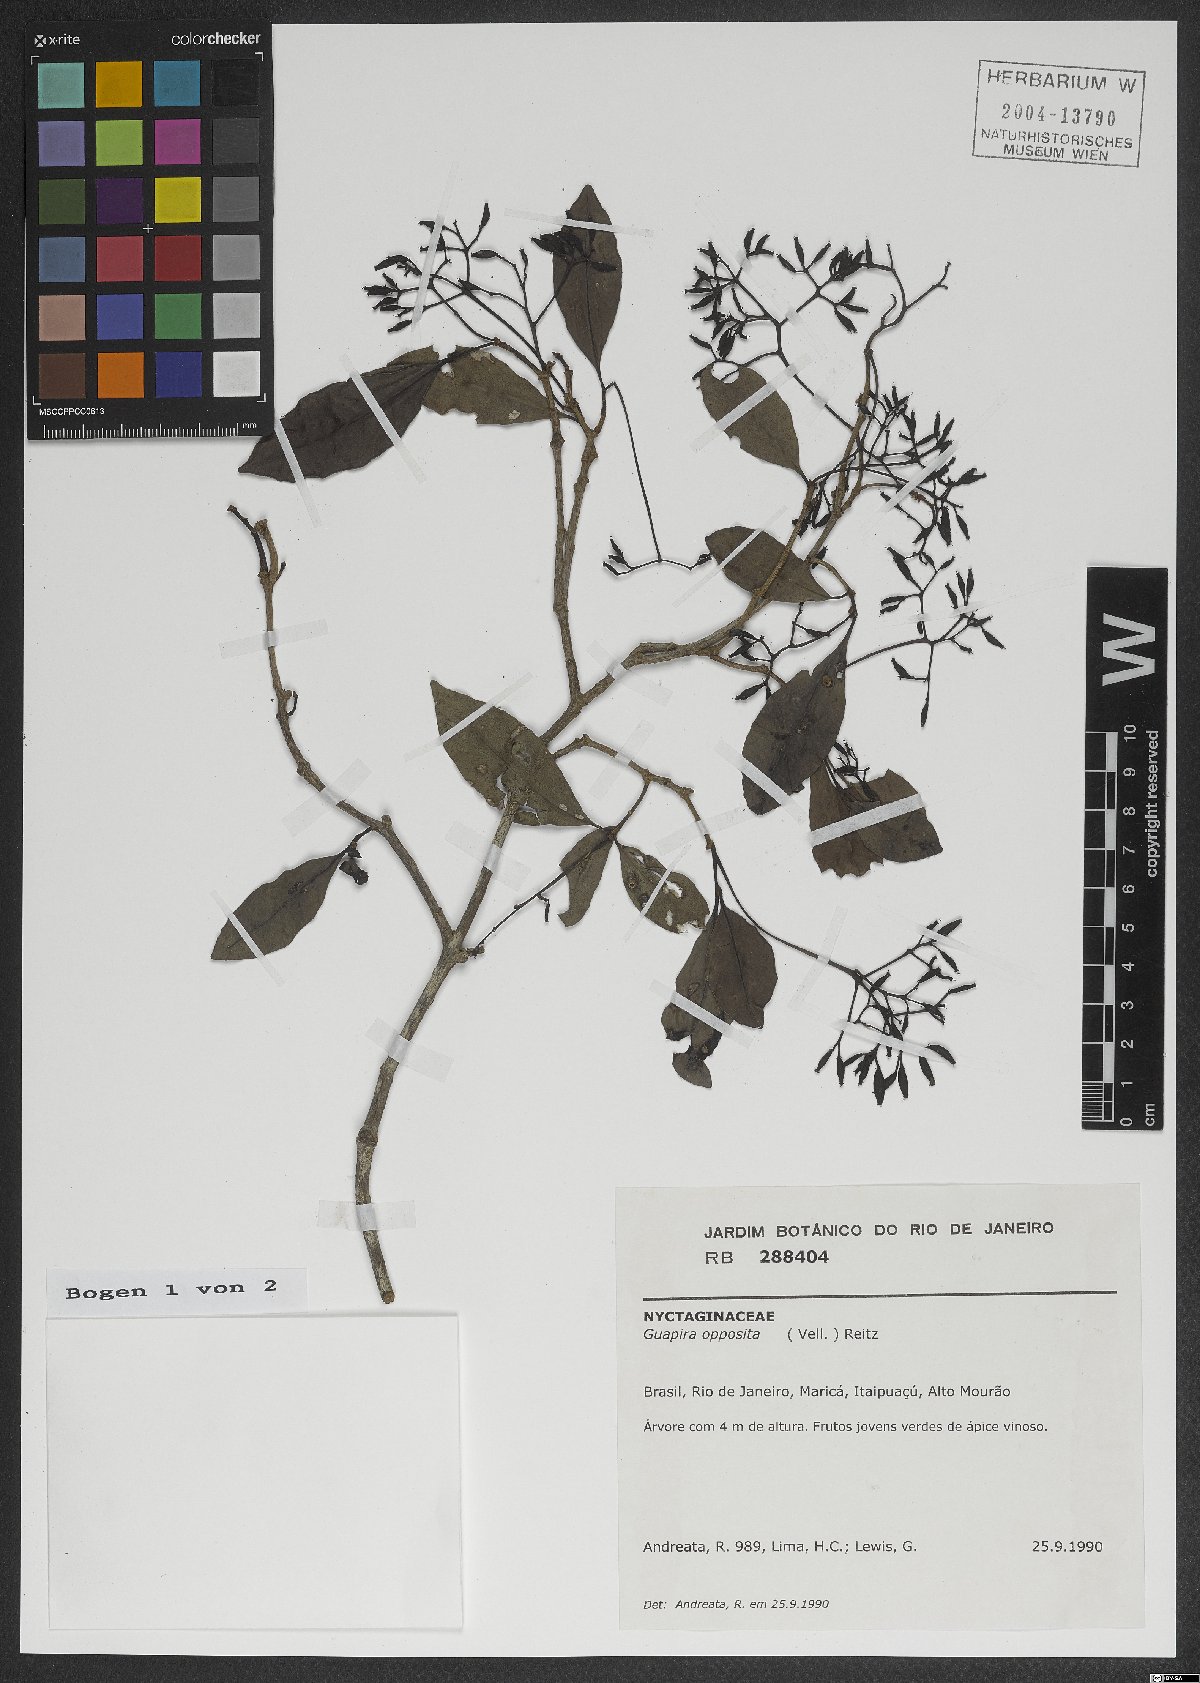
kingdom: Plantae
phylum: Tracheophyta
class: Magnoliopsida
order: Caryophyllales
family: Nyctaginaceae
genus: Guapira
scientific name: Guapira opposita
